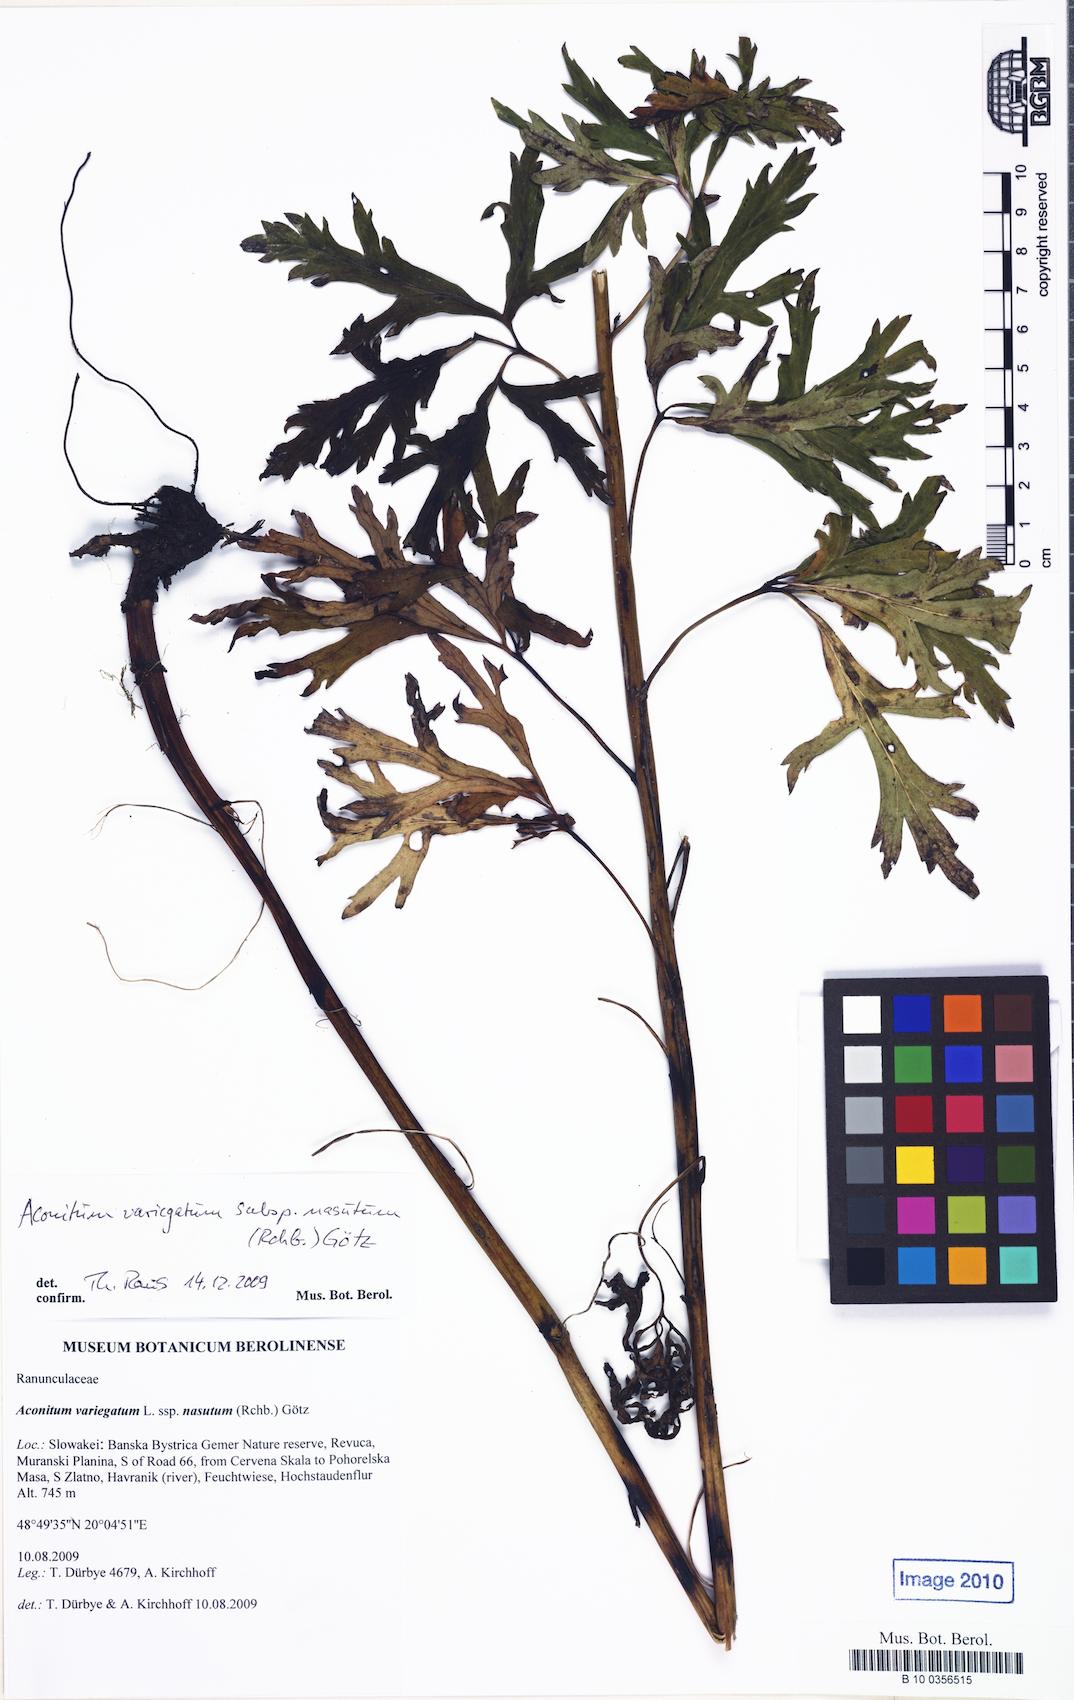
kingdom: Plantae
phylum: Tracheophyta
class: Magnoliopsida
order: Ranunculales
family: Ranunculaceae
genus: Aconitum
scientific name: Aconitum variegatum
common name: Manchurian monkshood
